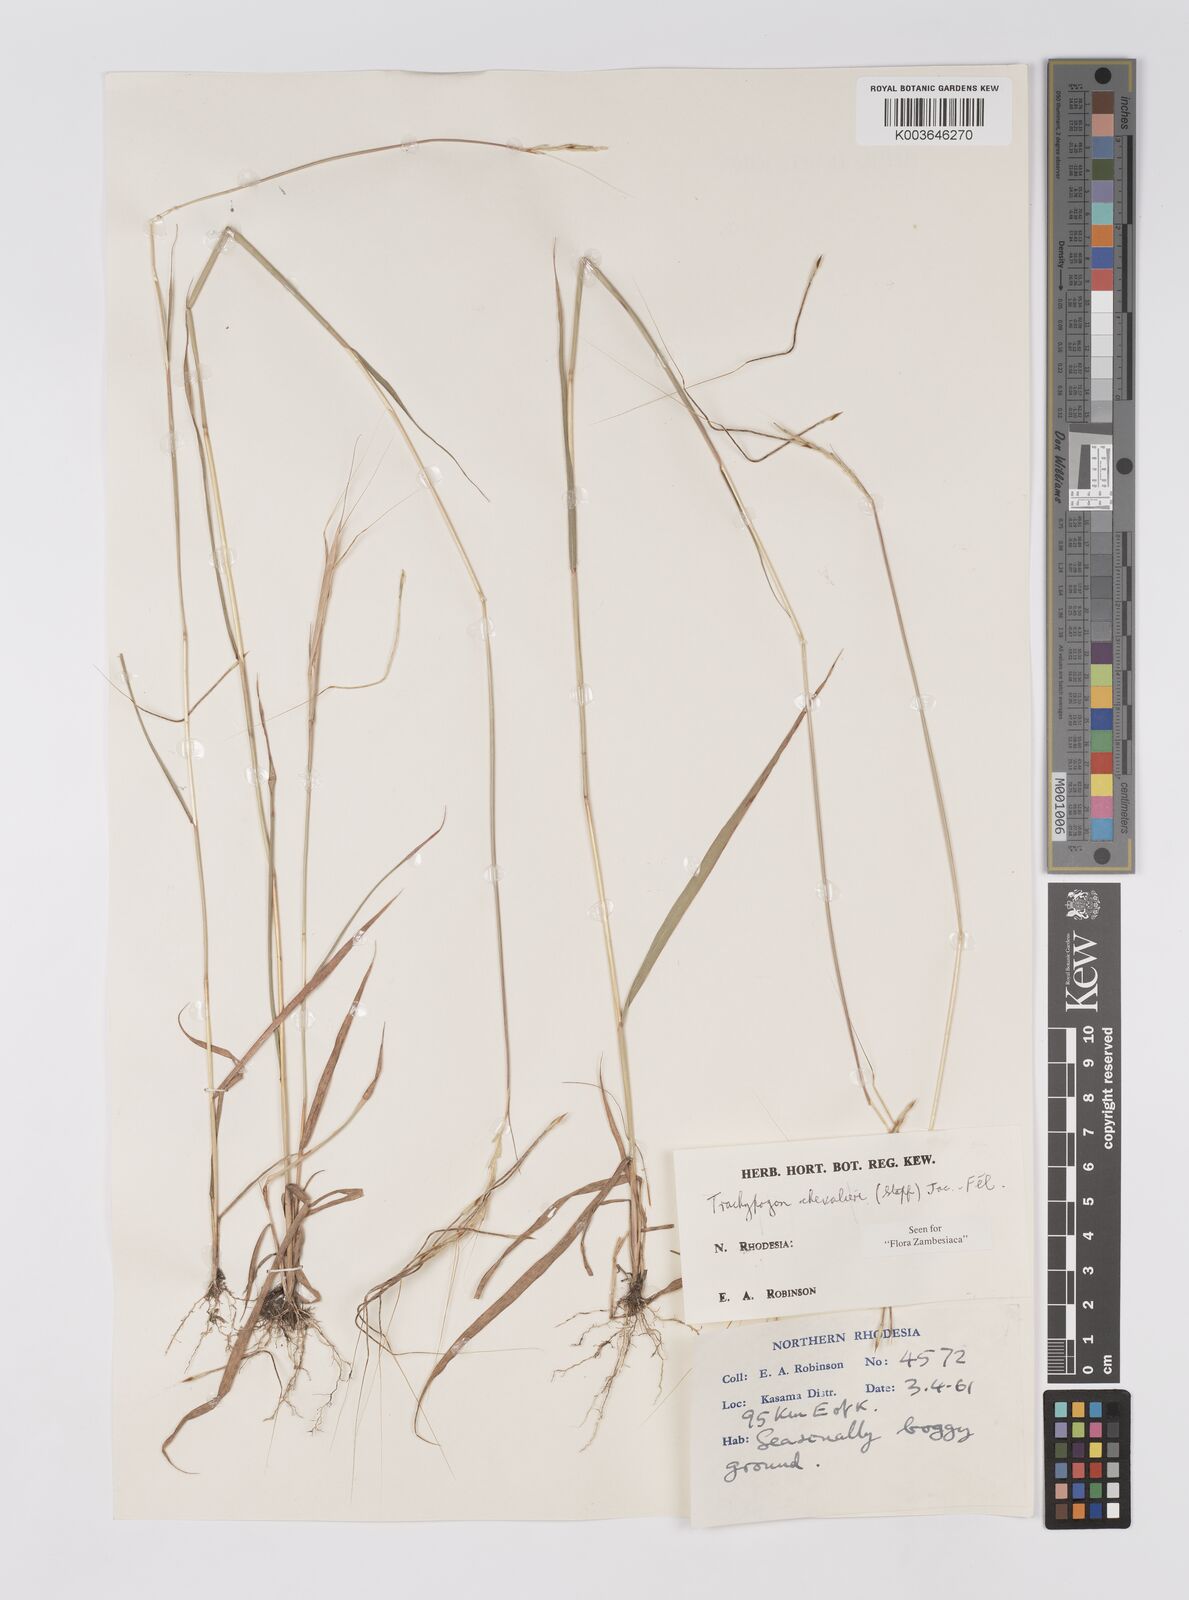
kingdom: Plantae
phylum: Tracheophyta
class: Liliopsida
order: Poales
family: Poaceae
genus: Trachypogon
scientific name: Trachypogon chevalieri
